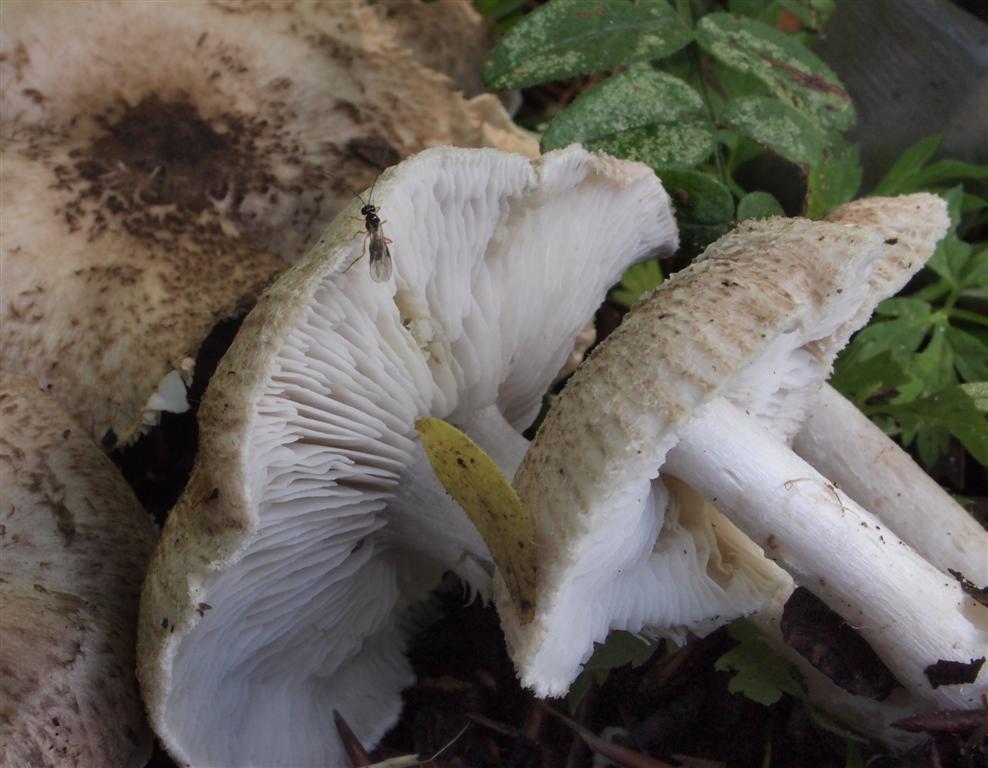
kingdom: Fungi
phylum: Basidiomycota
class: Agaricomycetes
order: Agaricales
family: Tricholomataceae
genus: Tricholoma
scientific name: Tricholoma scalpturatum
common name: gulplettet ridderhat
